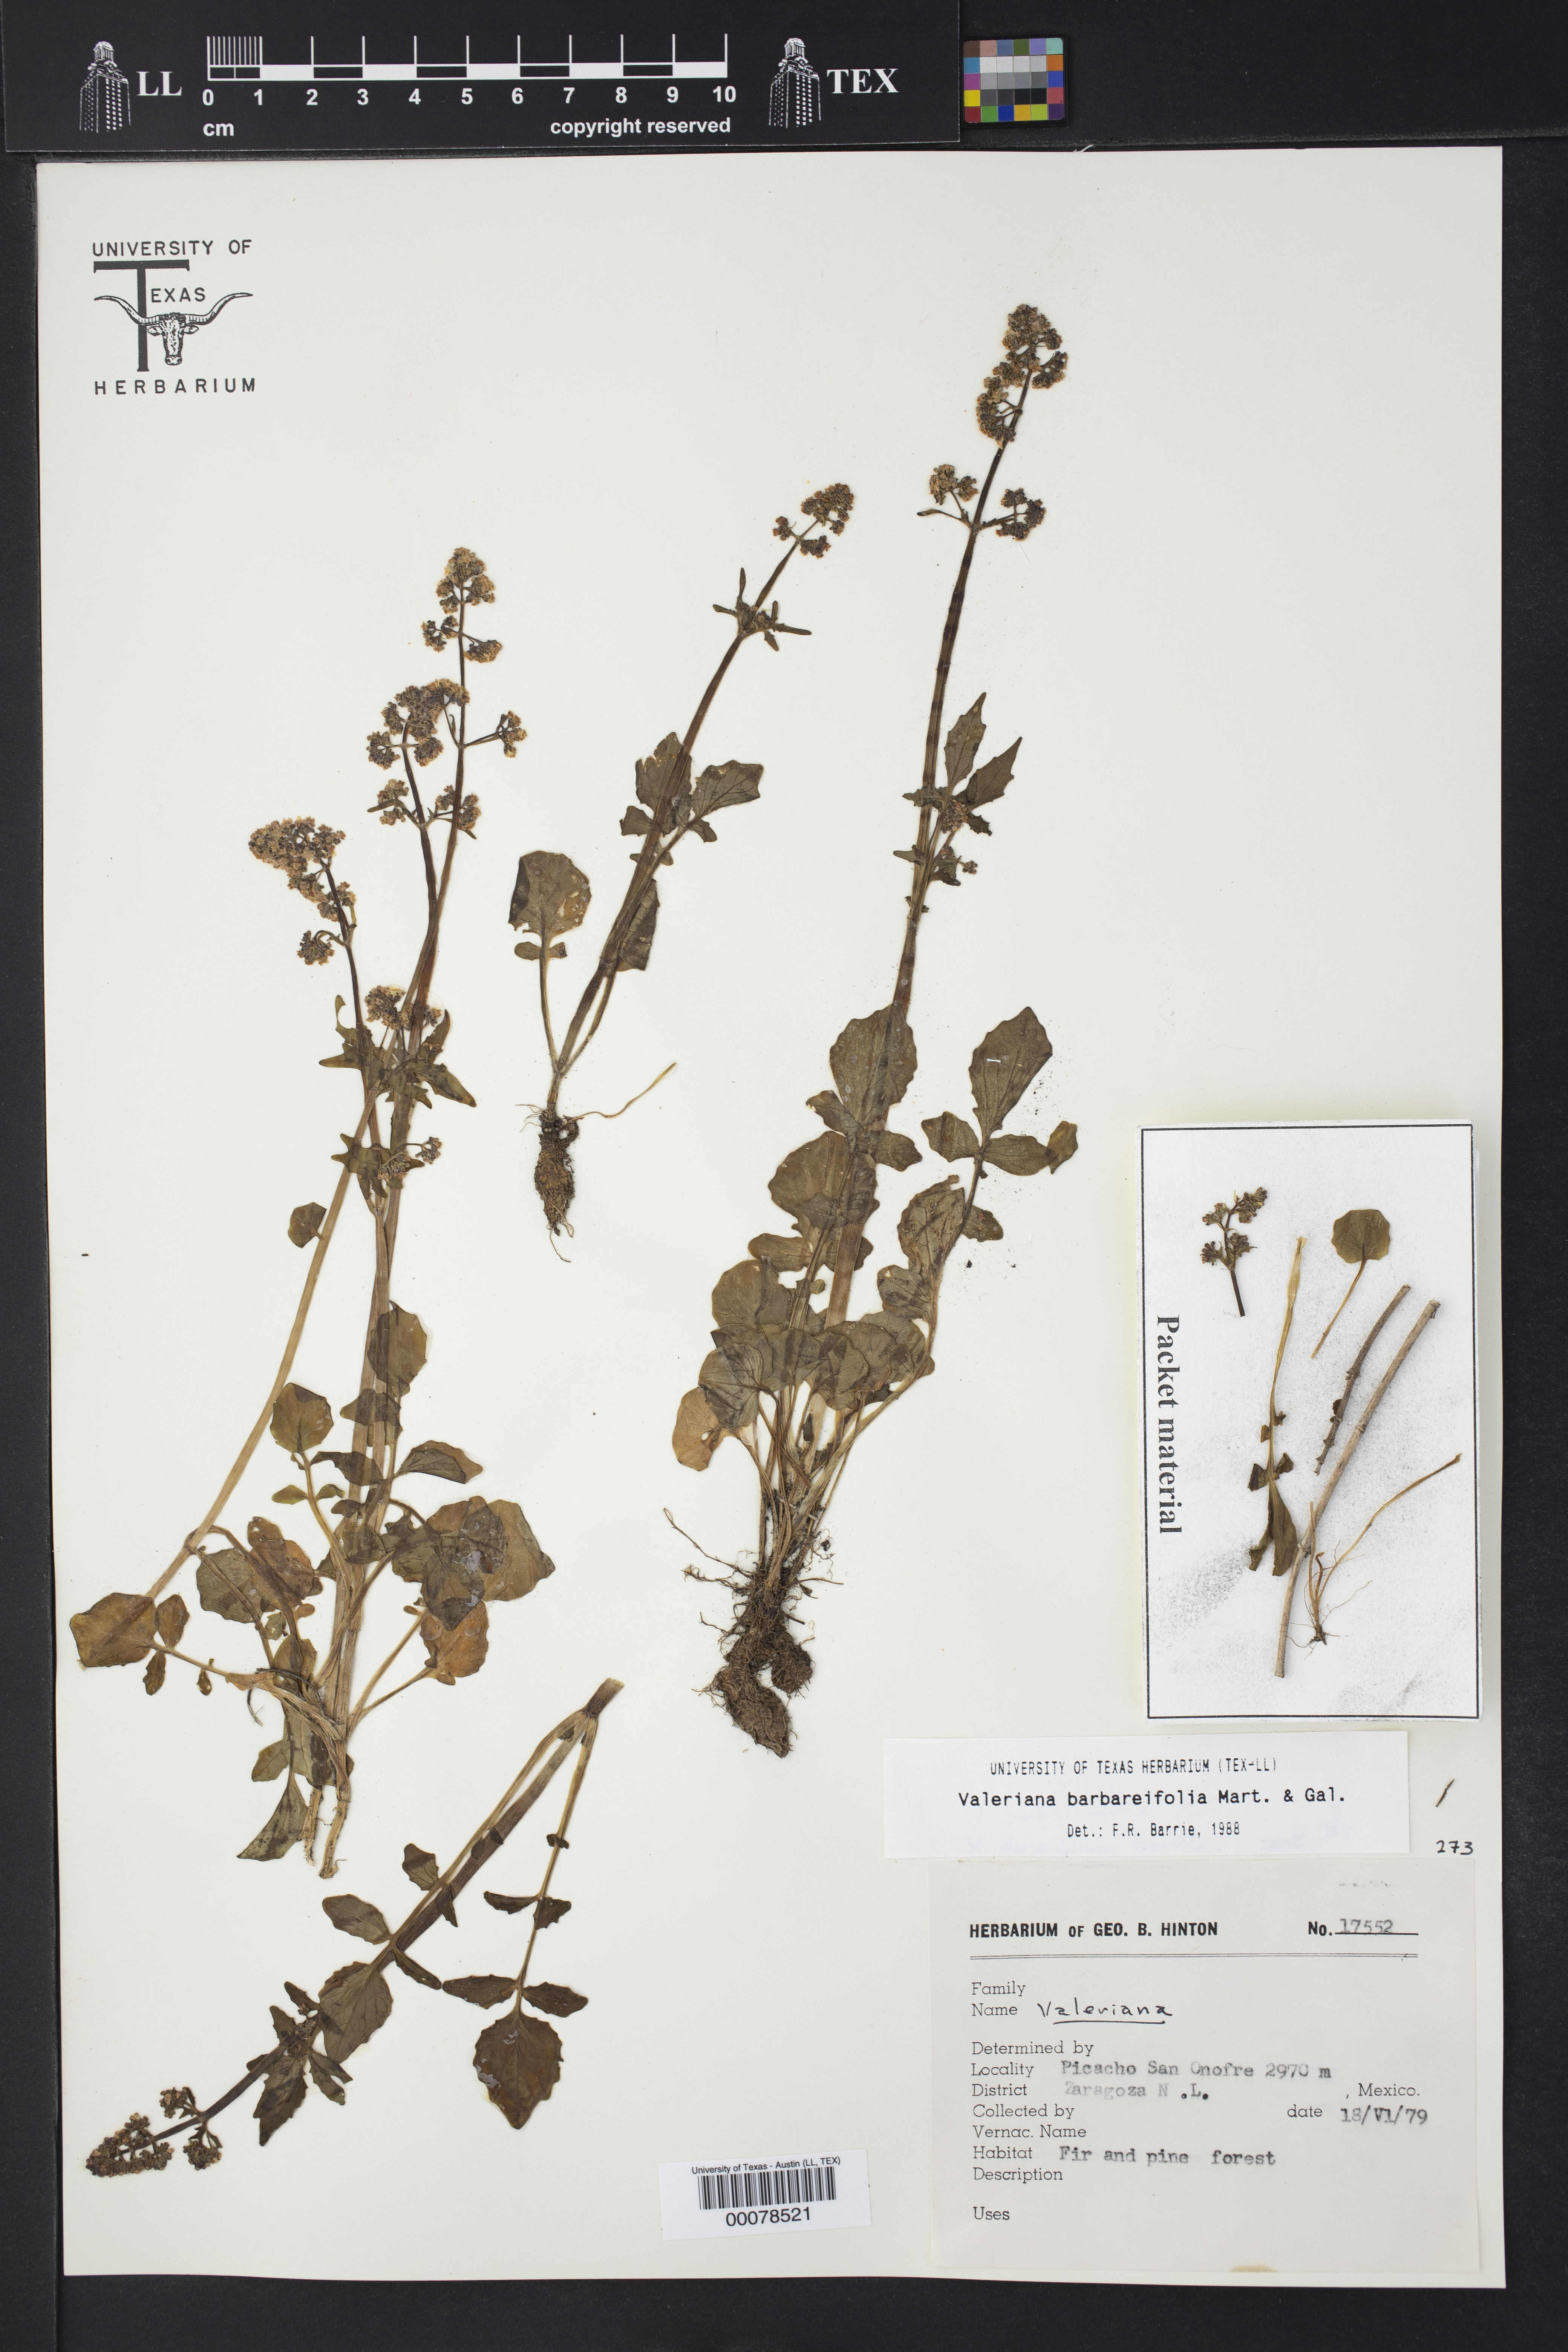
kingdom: Plantae
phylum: Tracheophyta
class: Magnoliopsida
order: Dipsacales
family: Caprifoliaceae
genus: Valeriana
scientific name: Valeriana barbareifolia
